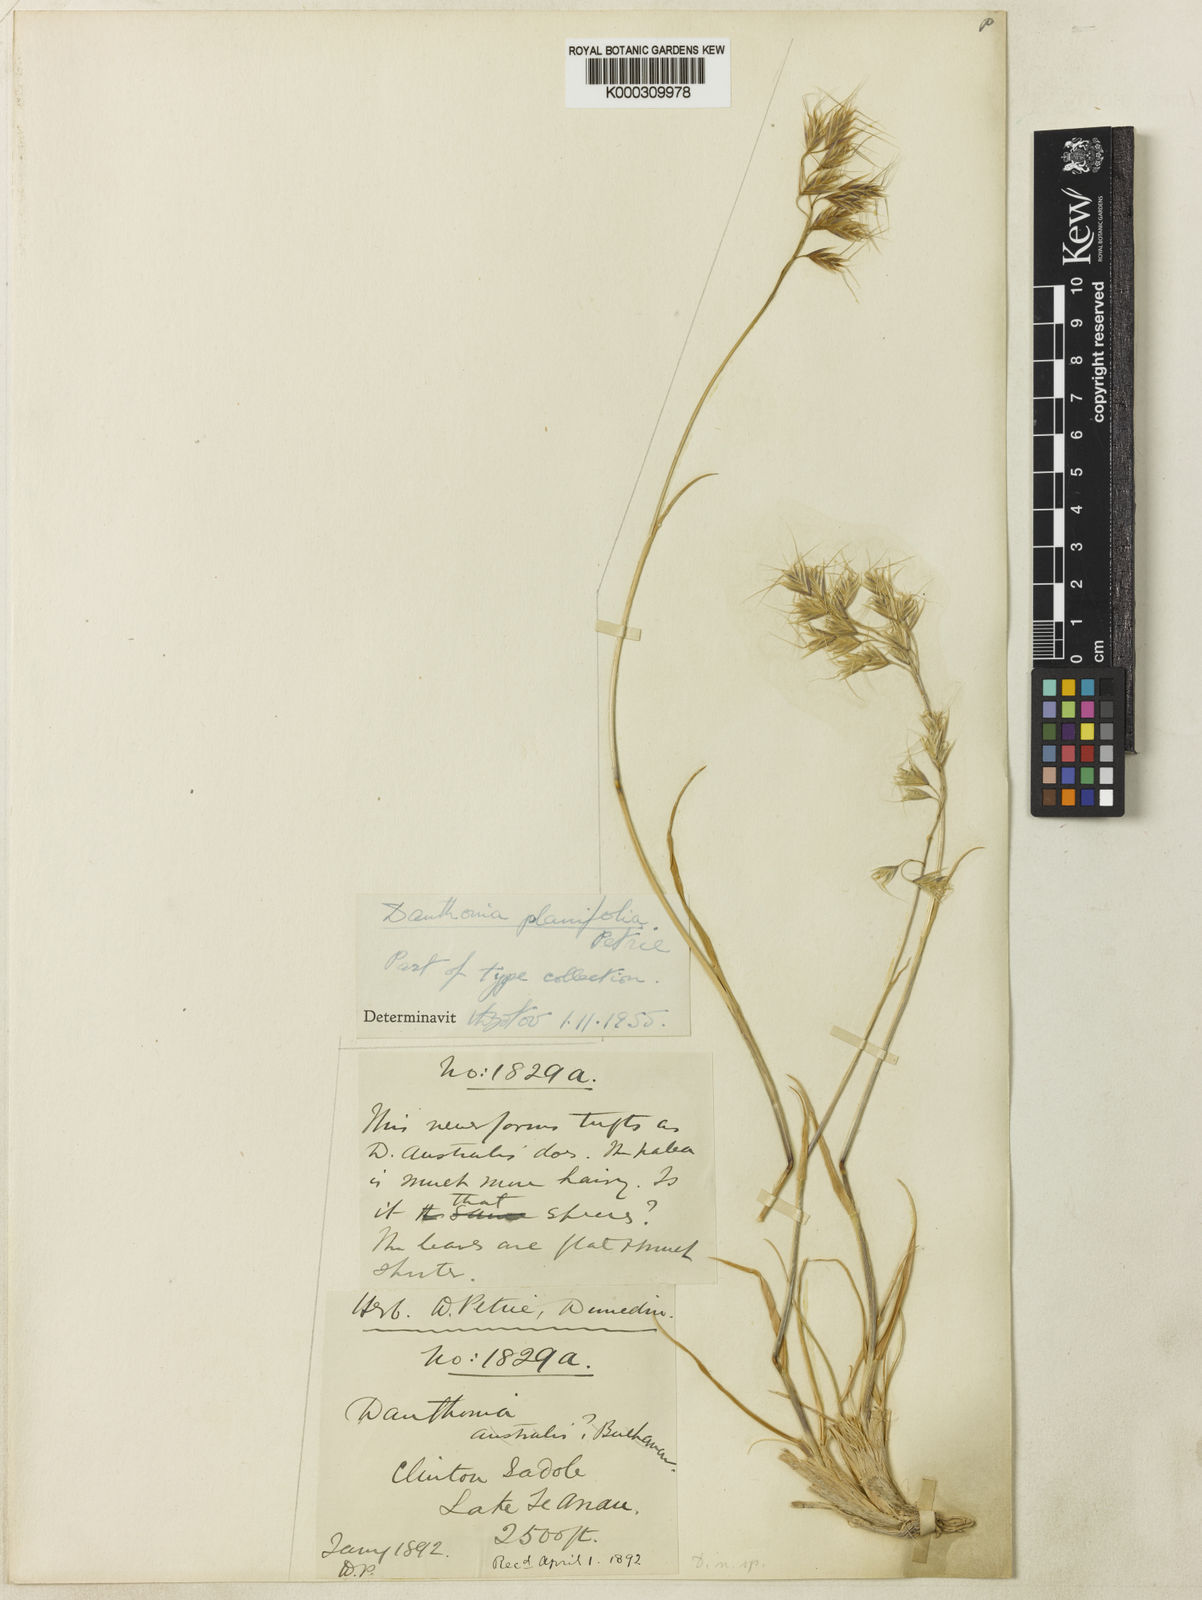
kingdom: Plantae
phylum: Tracheophyta
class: Liliopsida
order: Poales
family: Poaceae
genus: Chionochloa
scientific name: Chionochloa ovata
